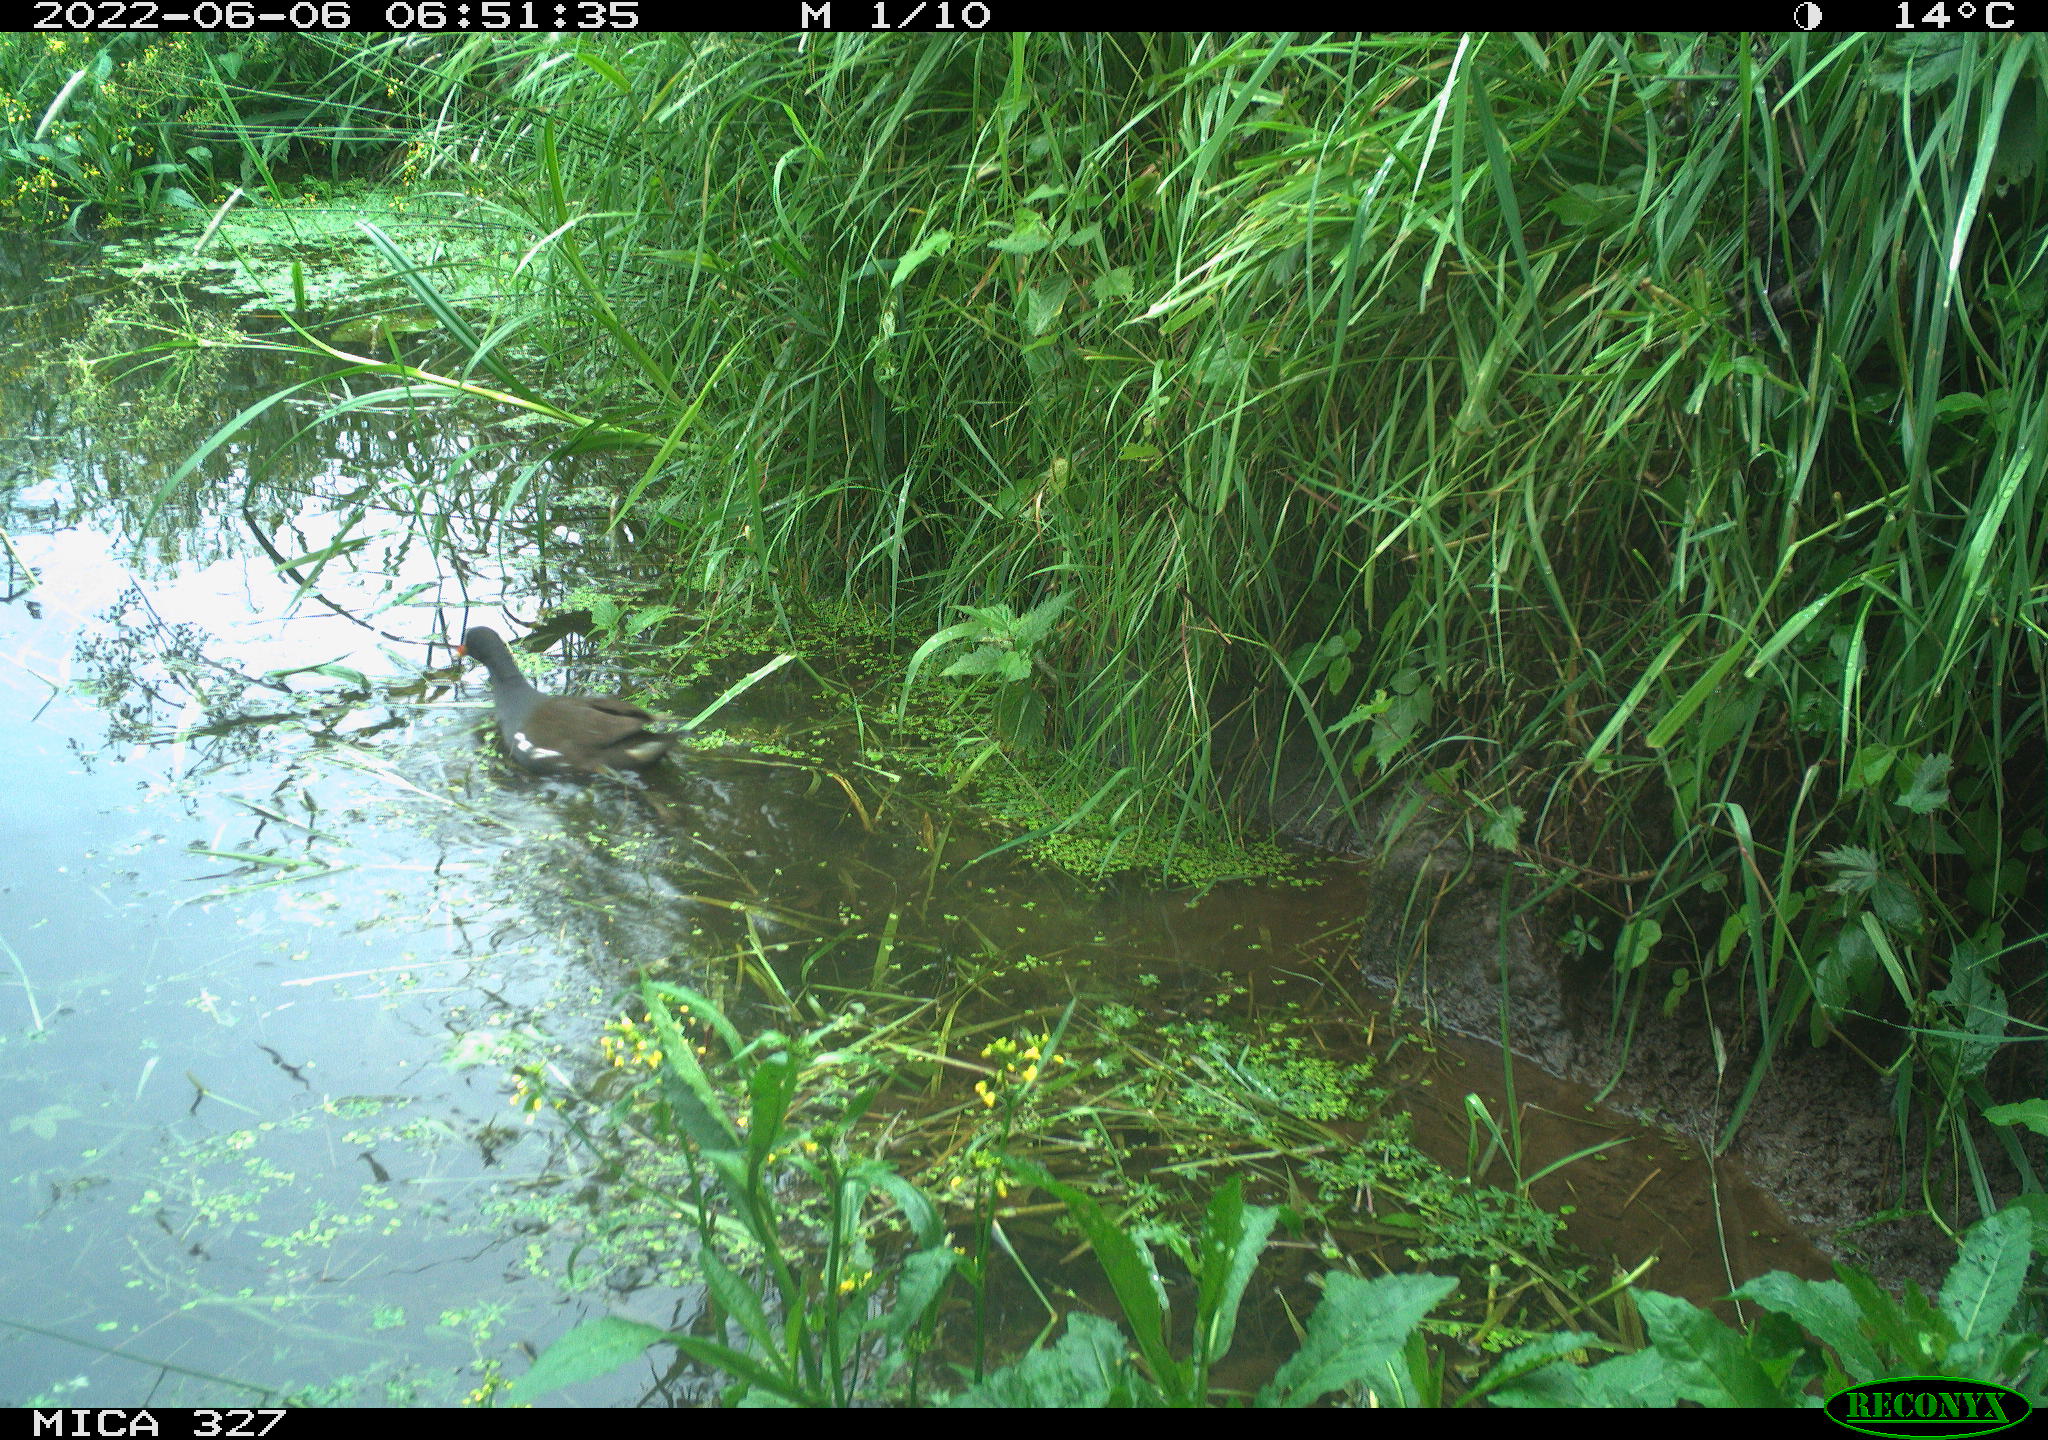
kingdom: Animalia
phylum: Chordata
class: Aves
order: Gruiformes
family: Rallidae
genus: Gallinula
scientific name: Gallinula chloropus
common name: Common moorhen
